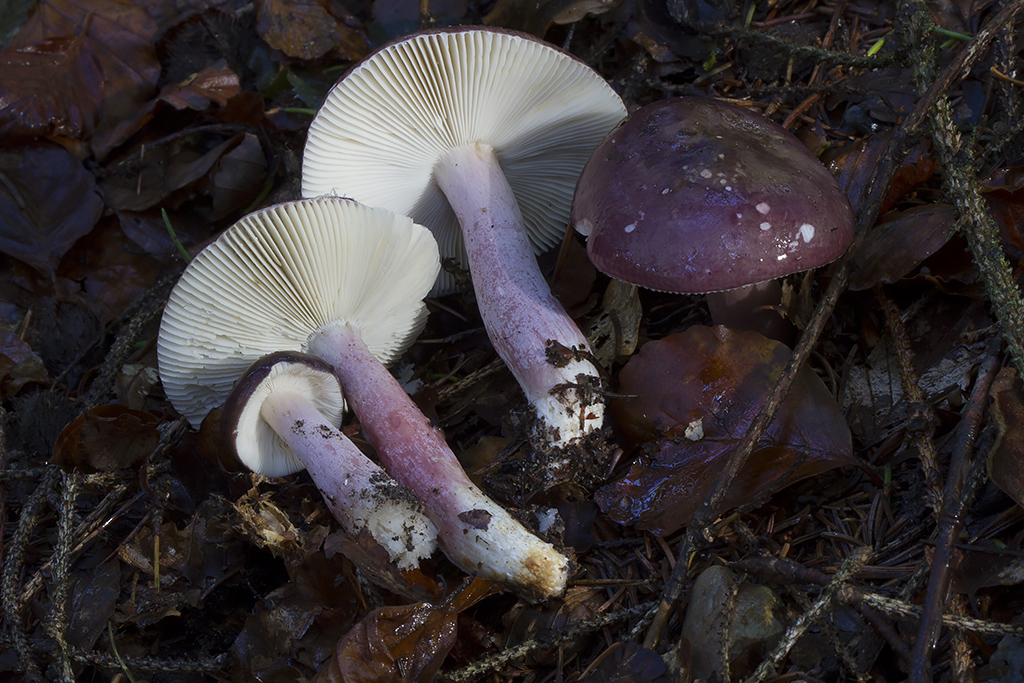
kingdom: Fungi
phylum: Basidiomycota
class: Agaricomycetes
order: Russulales
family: Russulaceae
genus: Russula
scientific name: Russula queletii
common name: Quélets skørhat
